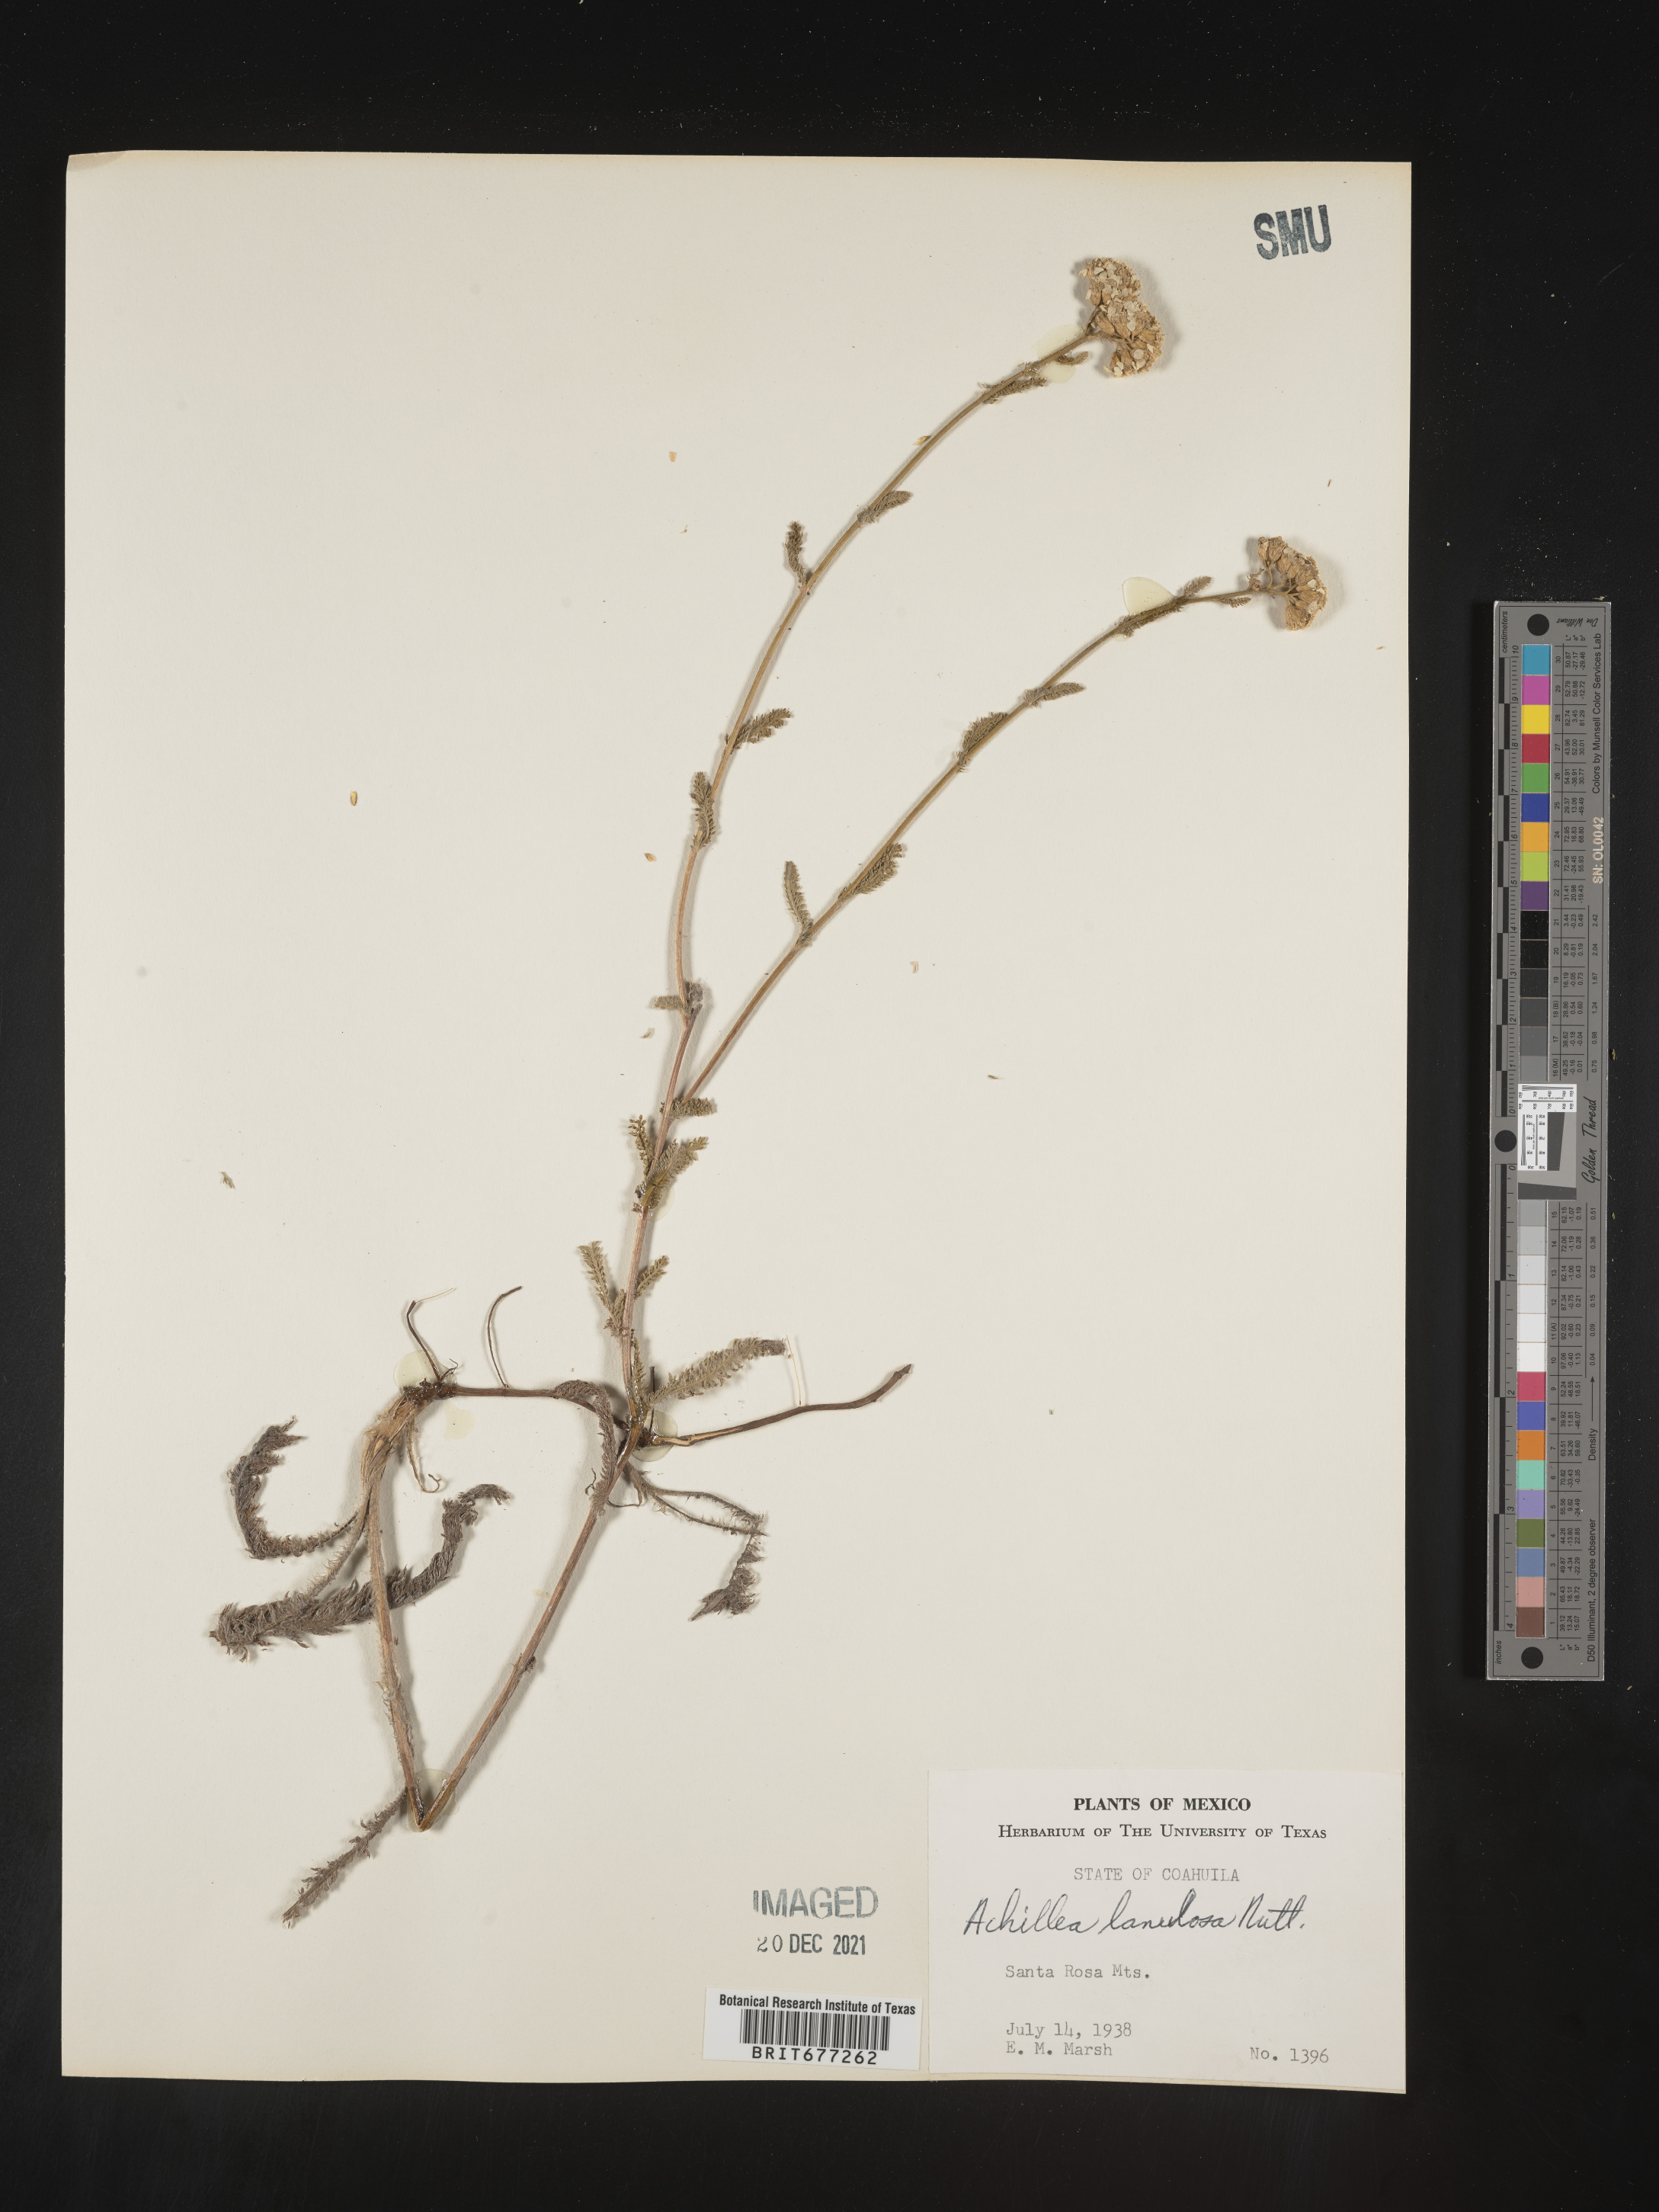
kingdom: Plantae
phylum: Tracheophyta
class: Magnoliopsida
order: Asterales
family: Asteraceae
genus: Achillea
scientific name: Achillea
